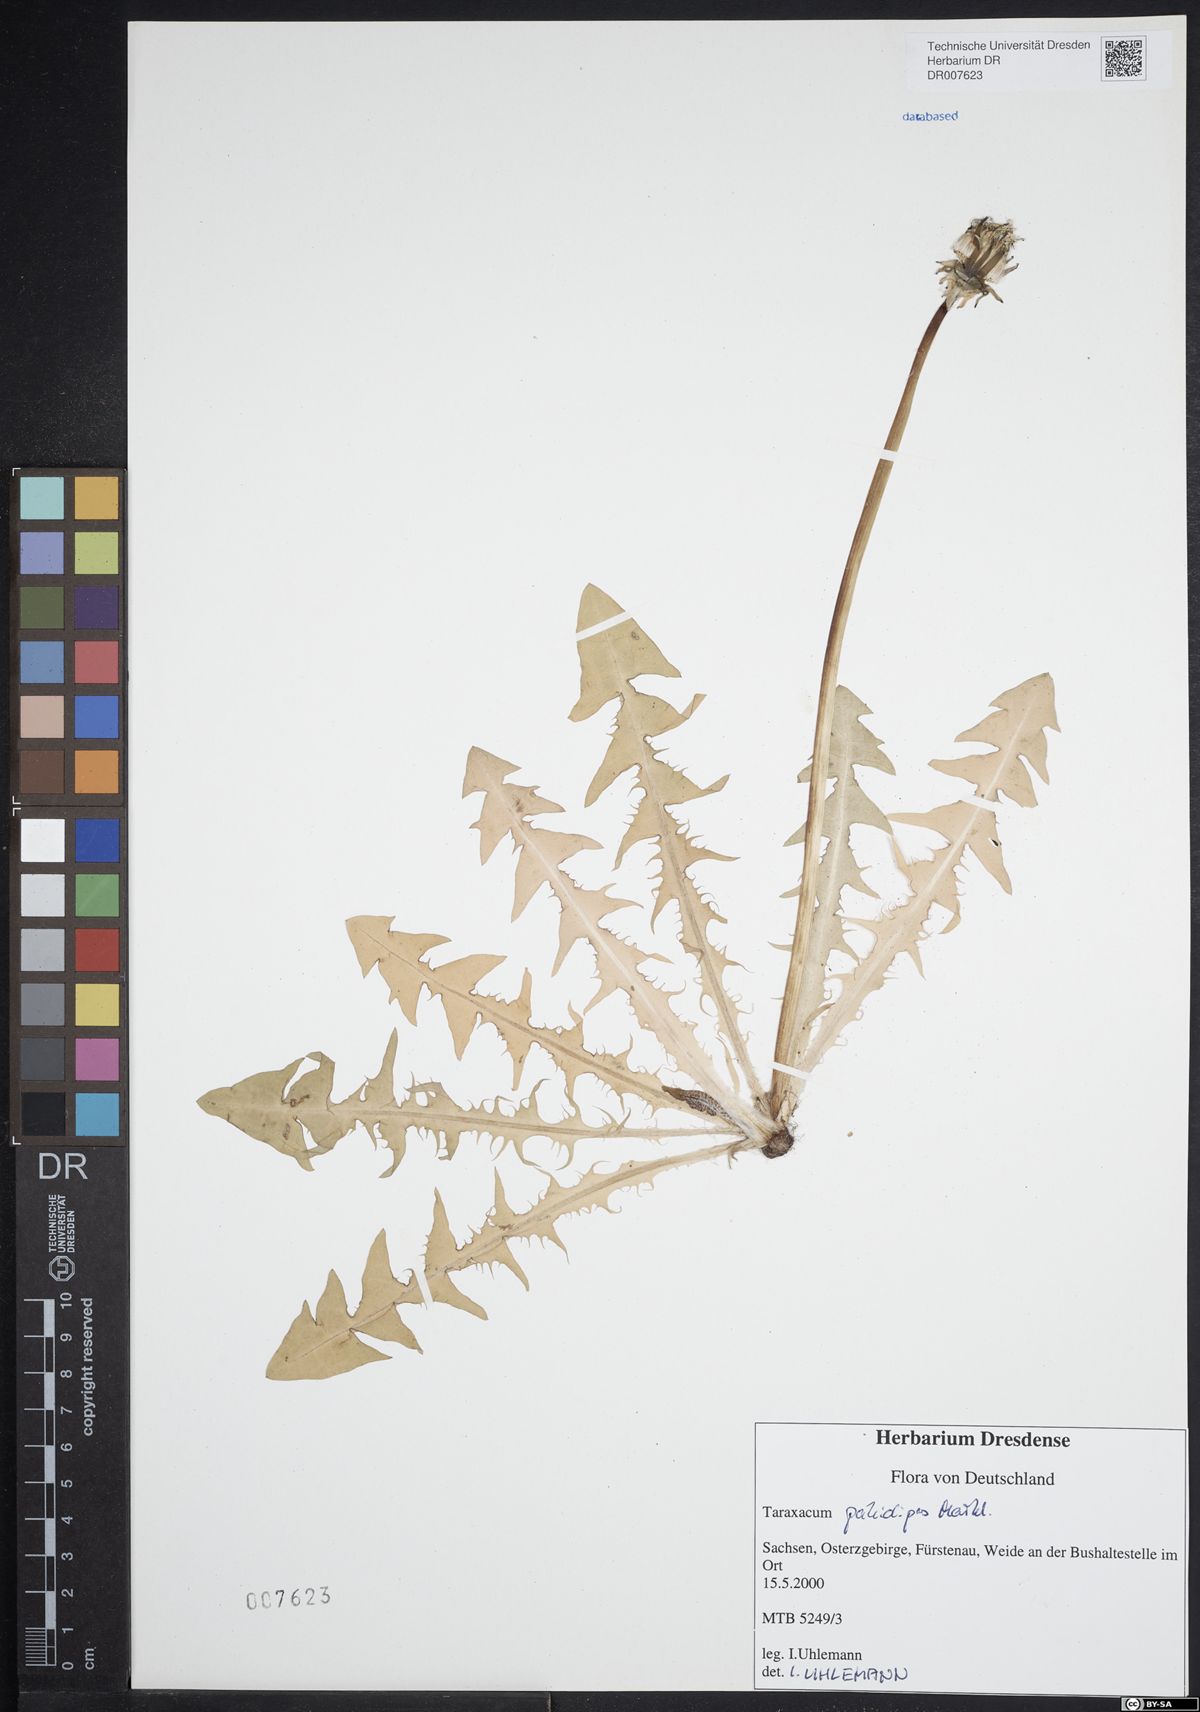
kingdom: Plantae
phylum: Tracheophyta
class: Magnoliopsida
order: Asterales
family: Asteraceae
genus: Taraxacum
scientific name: Taraxacum pallidipes
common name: Grey-bracted dandelion
